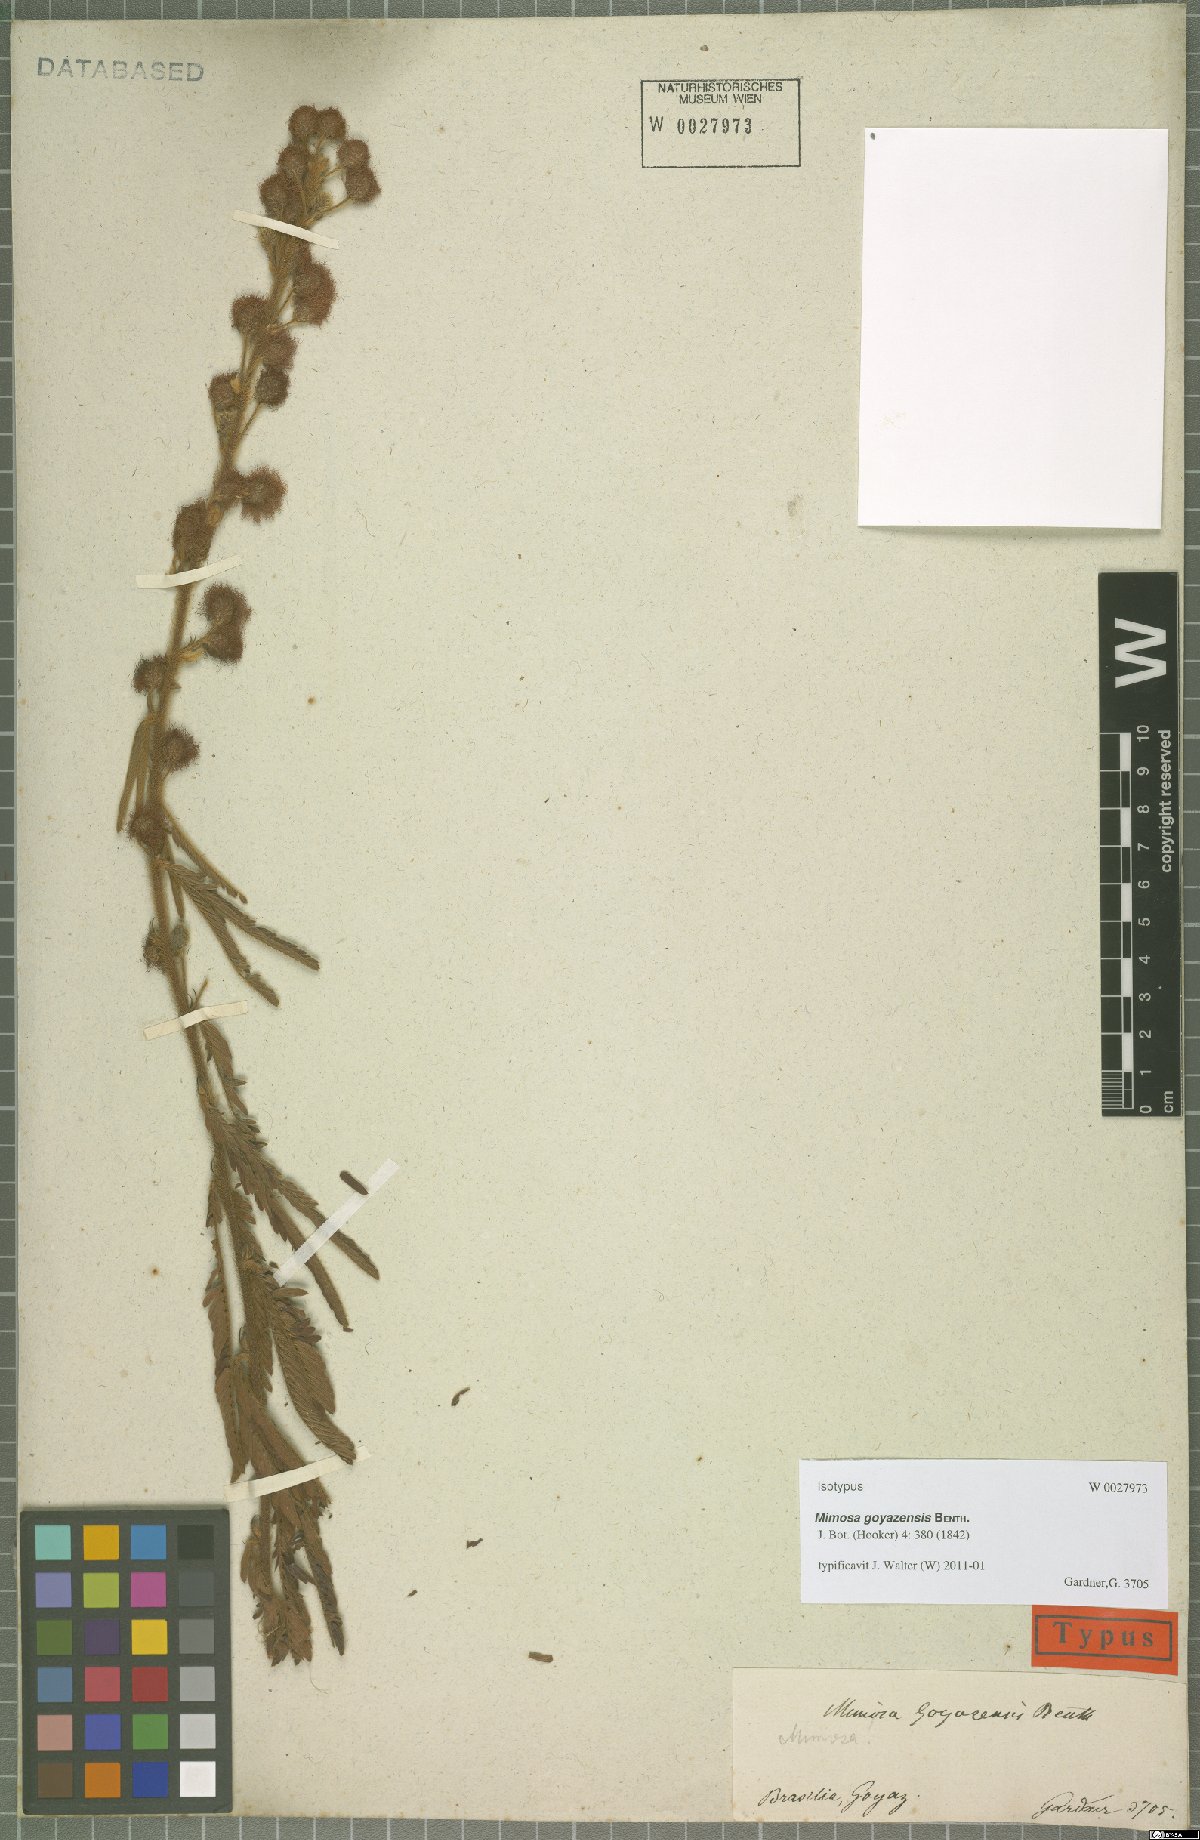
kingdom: Plantae
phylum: Tracheophyta
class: Magnoliopsida
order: Fabales
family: Fabaceae
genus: Mimosa
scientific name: Mimosa xanthocentra
